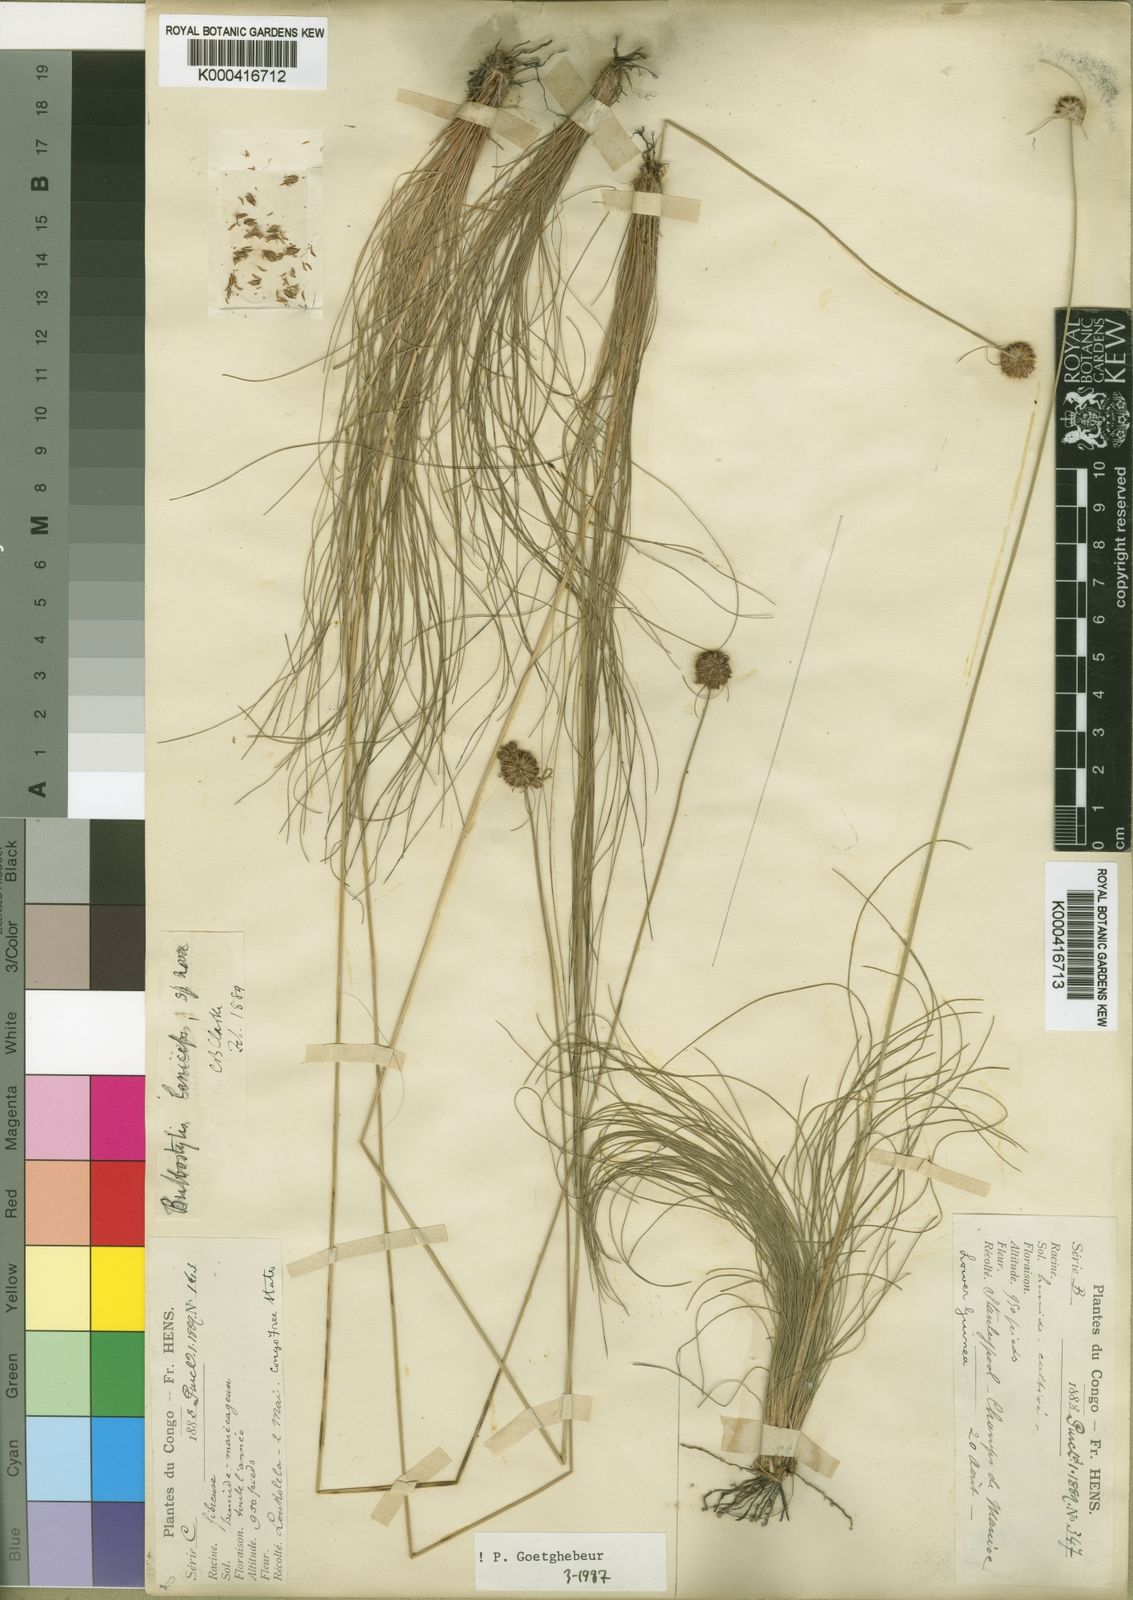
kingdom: Plantae
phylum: Tracheophyta
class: Liliopsida
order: Poales
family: Cyperaceae
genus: Bulbostylis
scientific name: Bulbostylis
